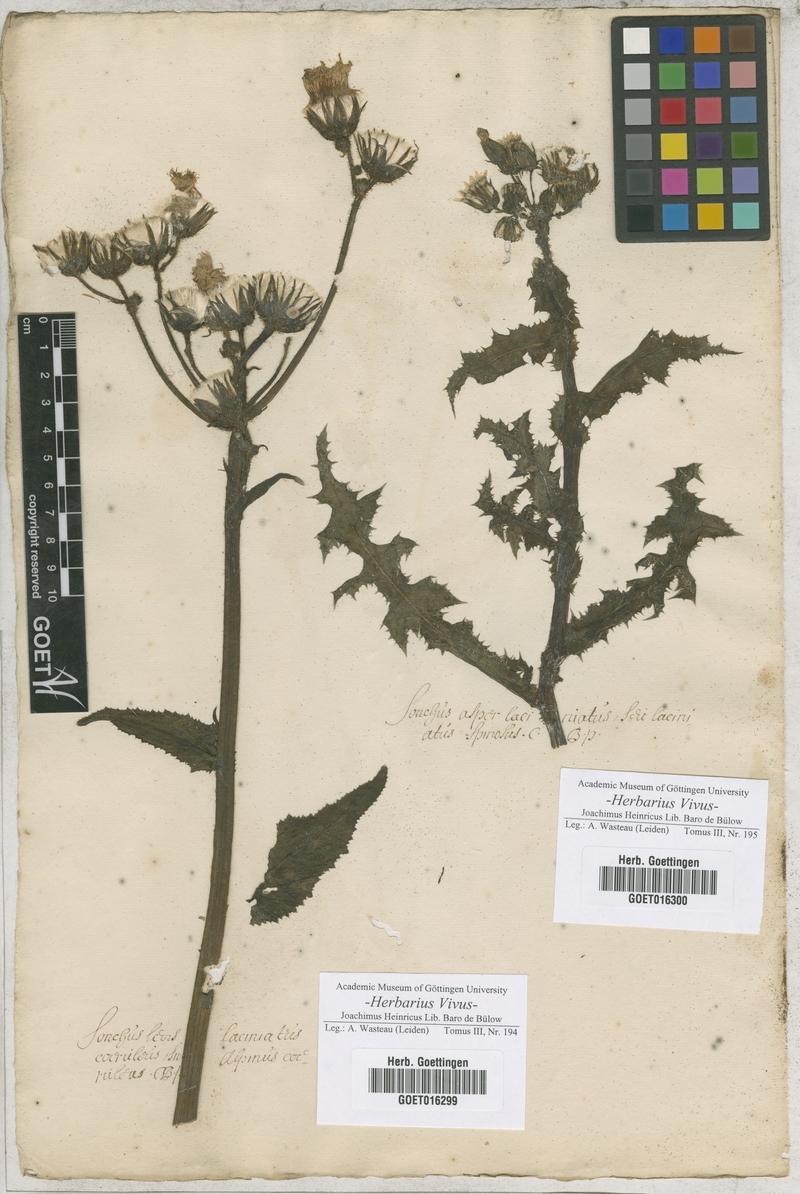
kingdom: Plantae
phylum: Tracheophyta
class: Magnoliopsida
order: Asterales
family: Asteraceae
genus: Cicerbita
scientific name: Cicerbita alpina
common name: Alpine blue-sow-thistle
